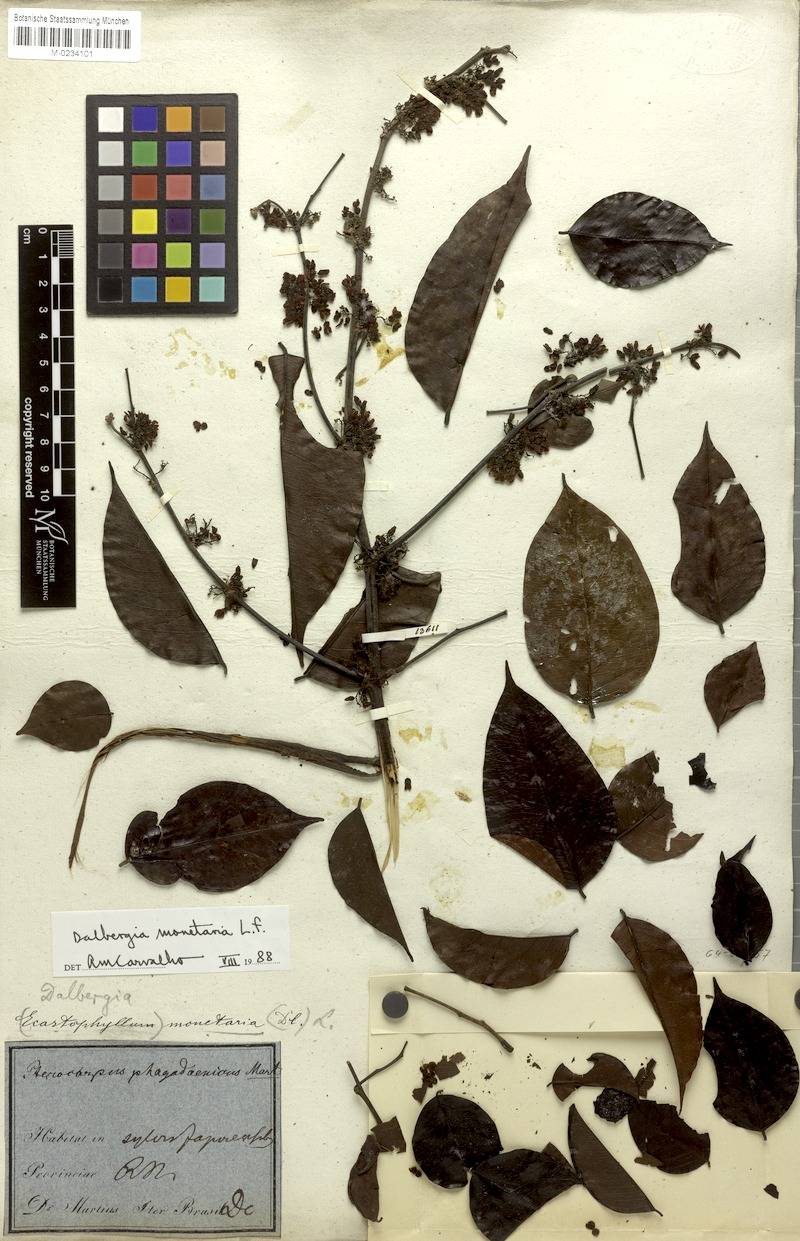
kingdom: Plantae
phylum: Tracheophyta
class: Magnoliopsida
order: Fabales
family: Fabaceae
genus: Dalbergia
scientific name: Dalbergia ovalis
